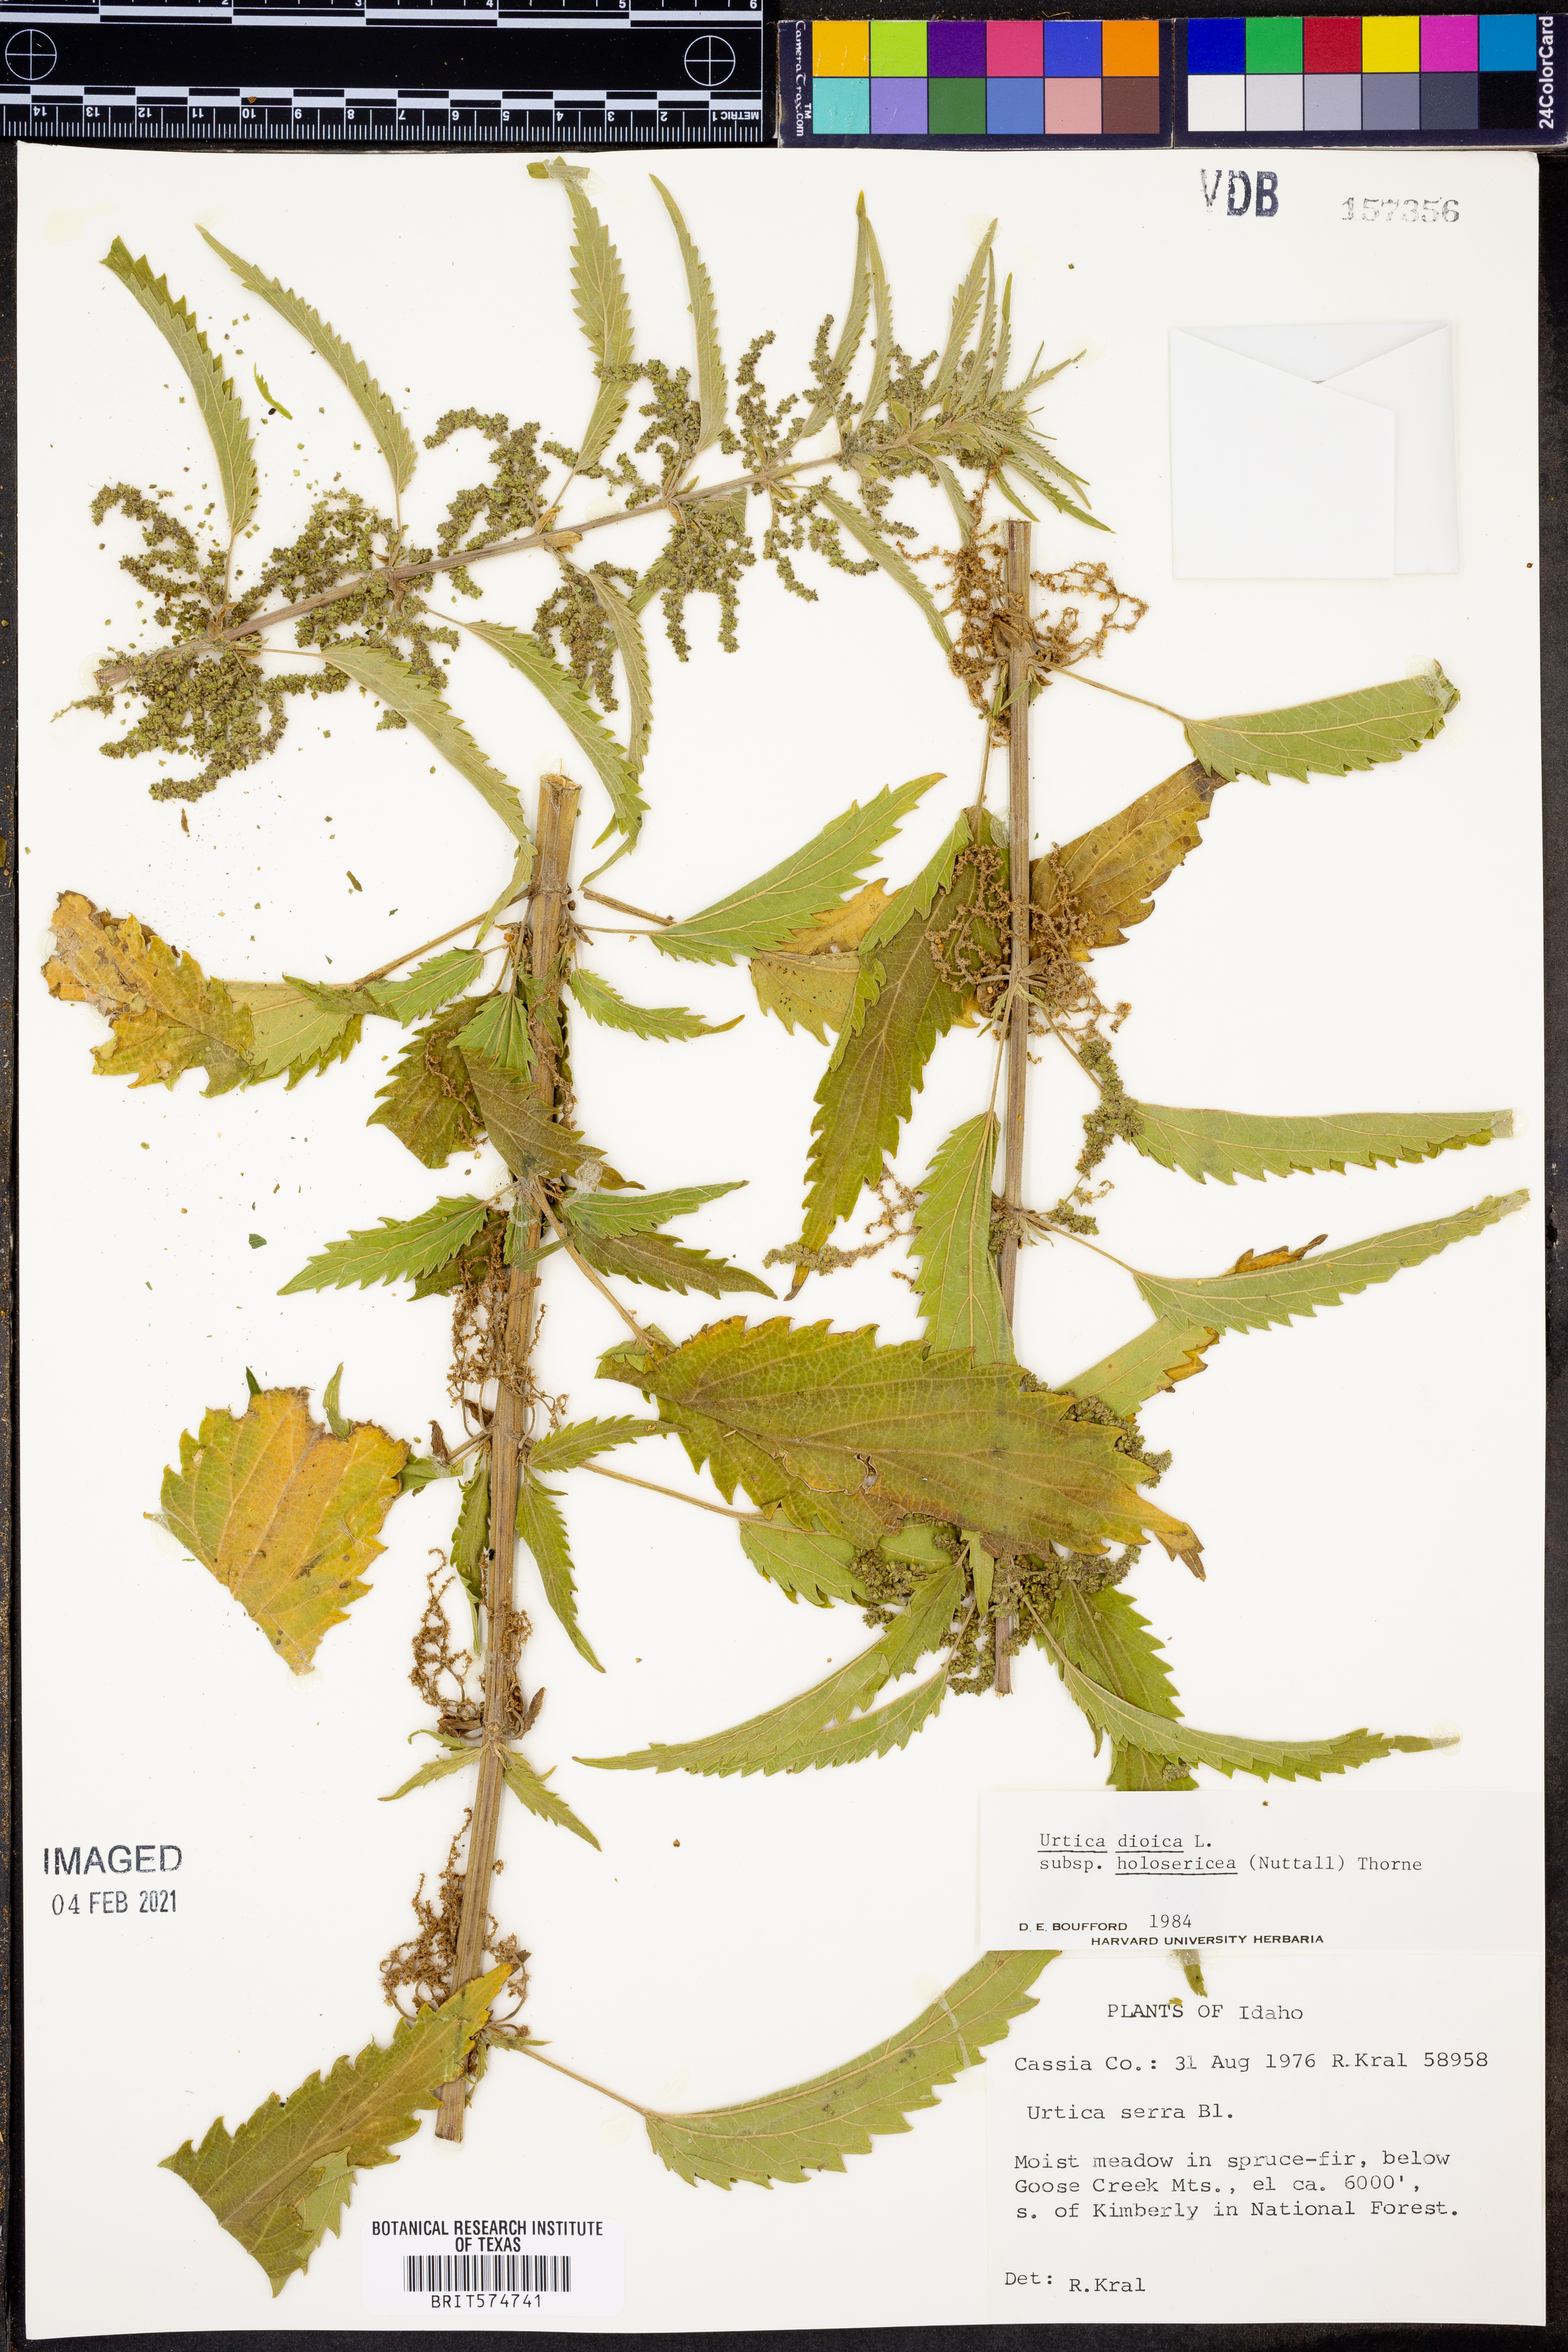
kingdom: Plantae
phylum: Tracheophyta
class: Magnoliopsida
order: Rosales
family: Urticaceae
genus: Urtica
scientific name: Urtica gracilis
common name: Slender stinging nettle
